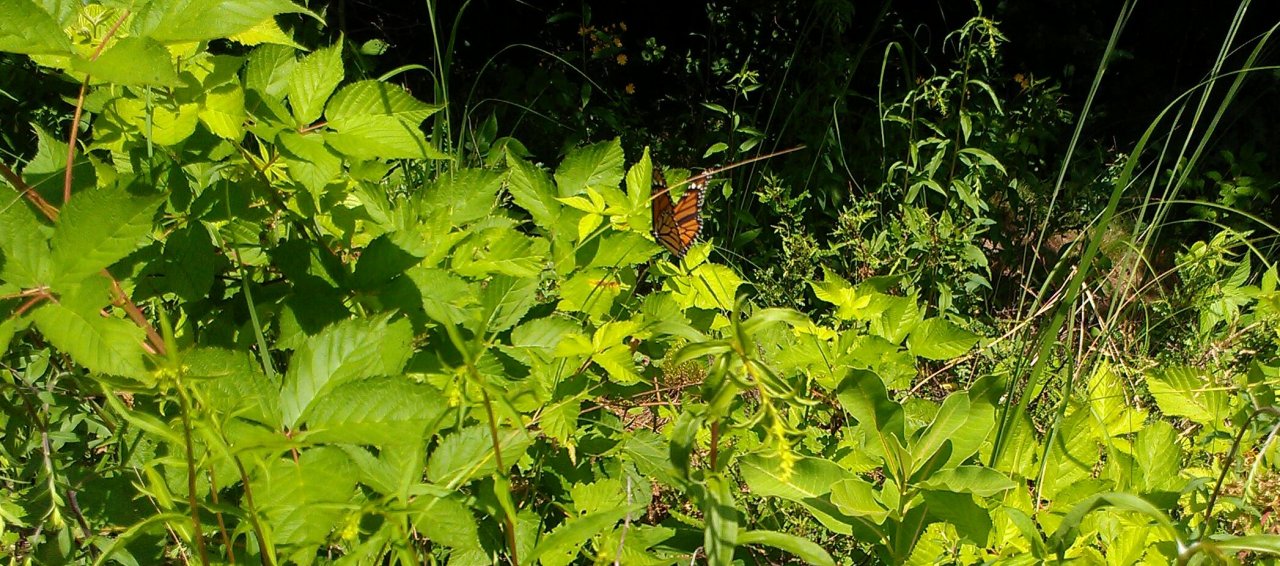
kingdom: Animalia
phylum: Arthropoda
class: Insecta
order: Lepidoptera
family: Nymphalidae
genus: Danaus
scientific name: Danaus plexippus
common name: Monarch
